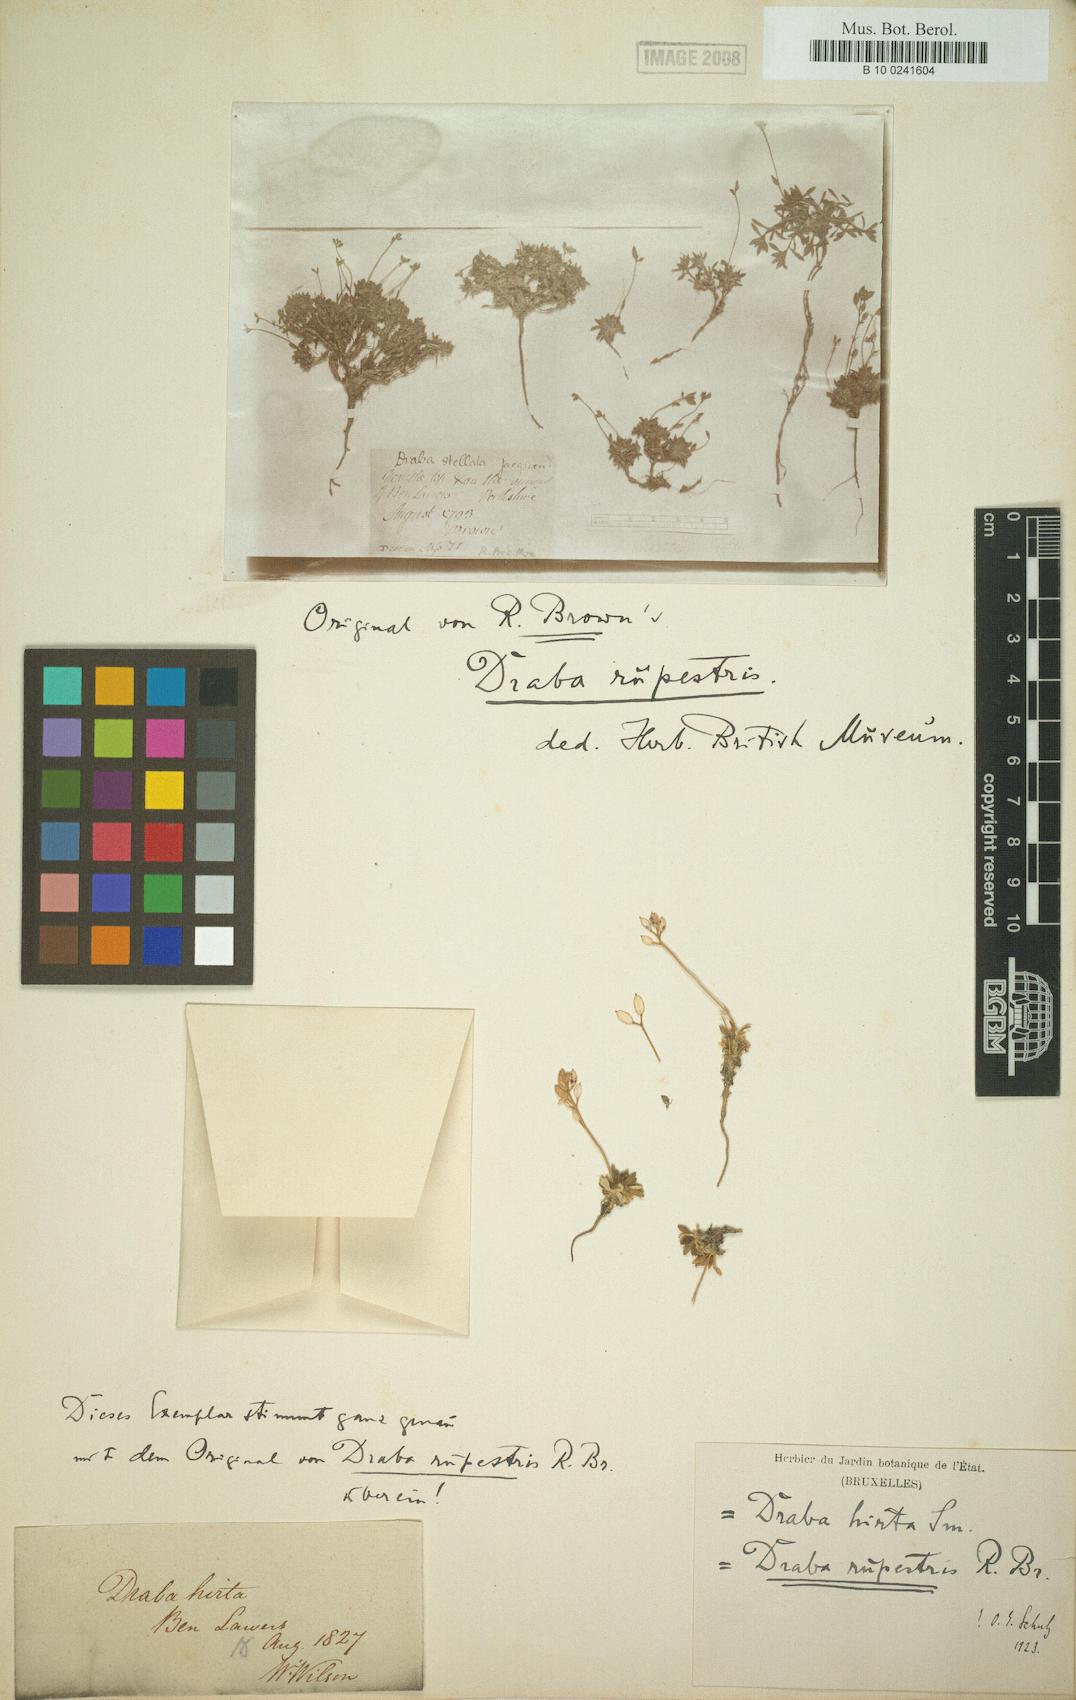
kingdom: Plantae
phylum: Tracheophyta
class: Magnoliopsida
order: Brassicales
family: Brassicaceae
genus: Draba
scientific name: Draba norvegica
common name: Rock whitlowgrass
